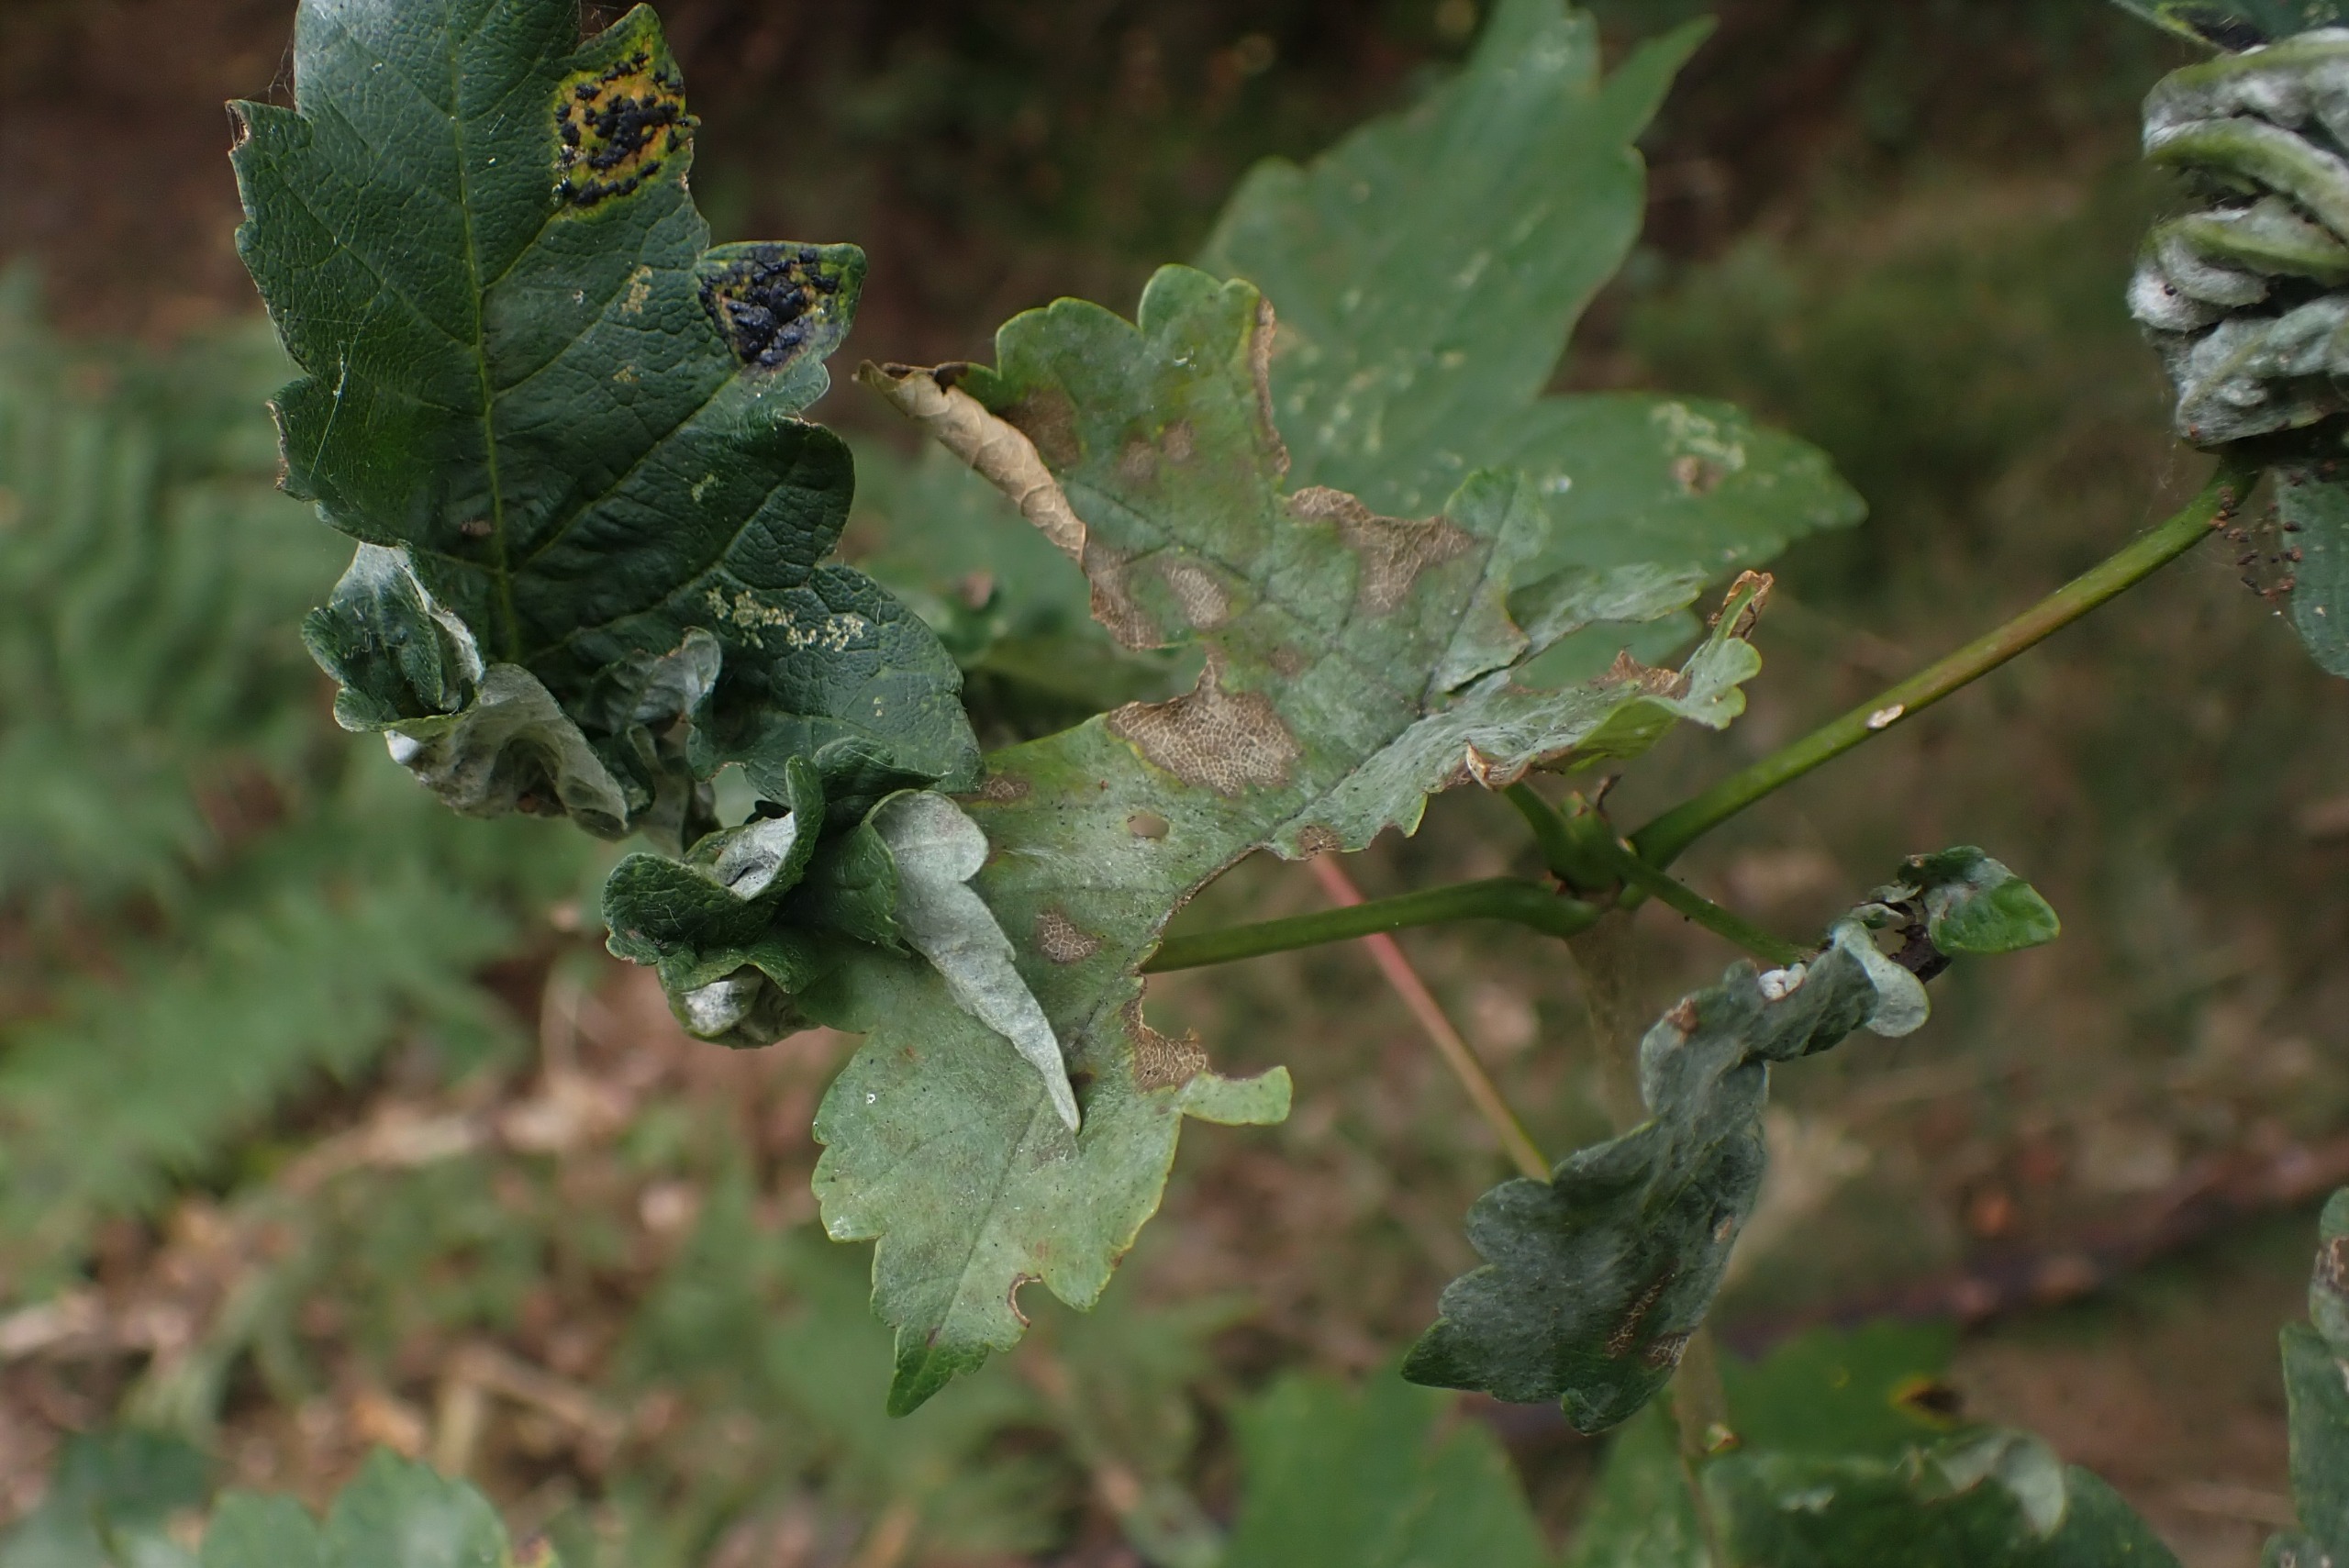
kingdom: Animalia
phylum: Arthropoda
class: Insecta
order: Diptera
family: Cecidomyiidae
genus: Dasineura
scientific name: Dasineura irregularis
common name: Ahornkrusegalmyg
